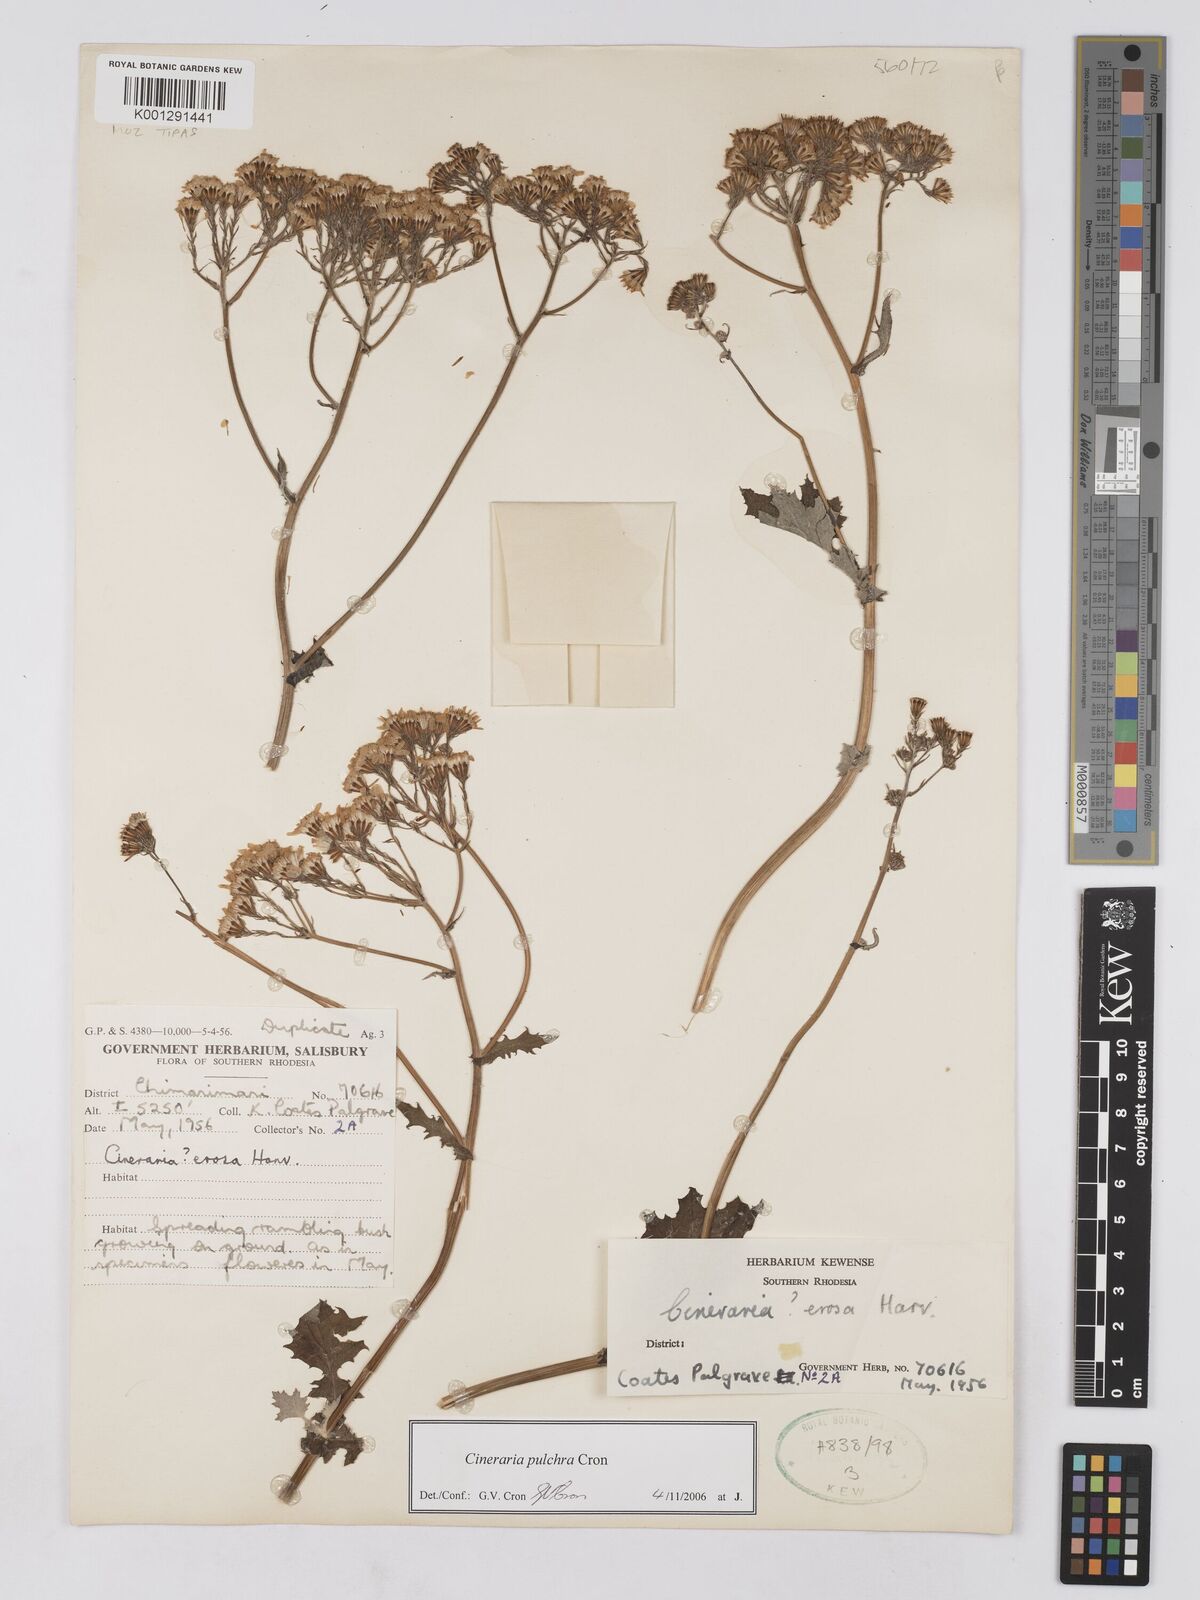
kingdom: Plantae
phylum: Tracheophyta
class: Magnoliopsida
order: Asterales
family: Asteraceae
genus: Cineraria
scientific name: Cineraria pulchra
